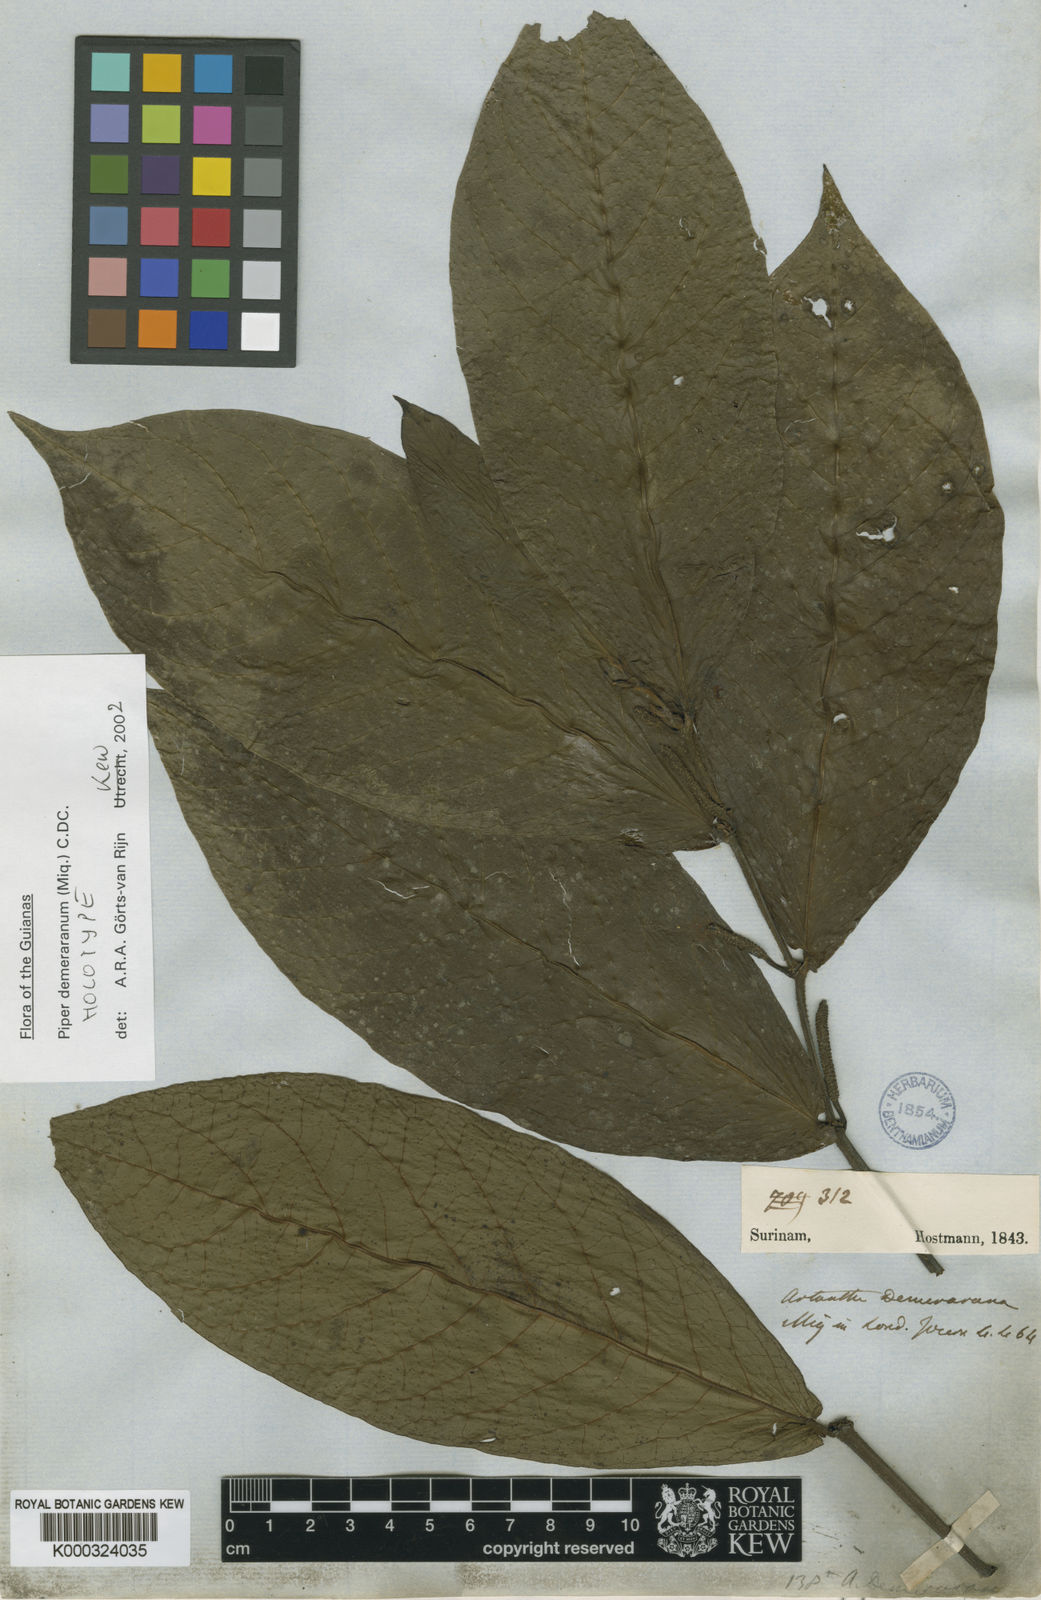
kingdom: Plantae
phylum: Tracheophyta
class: Magnoliopsida
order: Piperales
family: Piperaceae
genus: Piper
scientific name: Piper demeraranum
